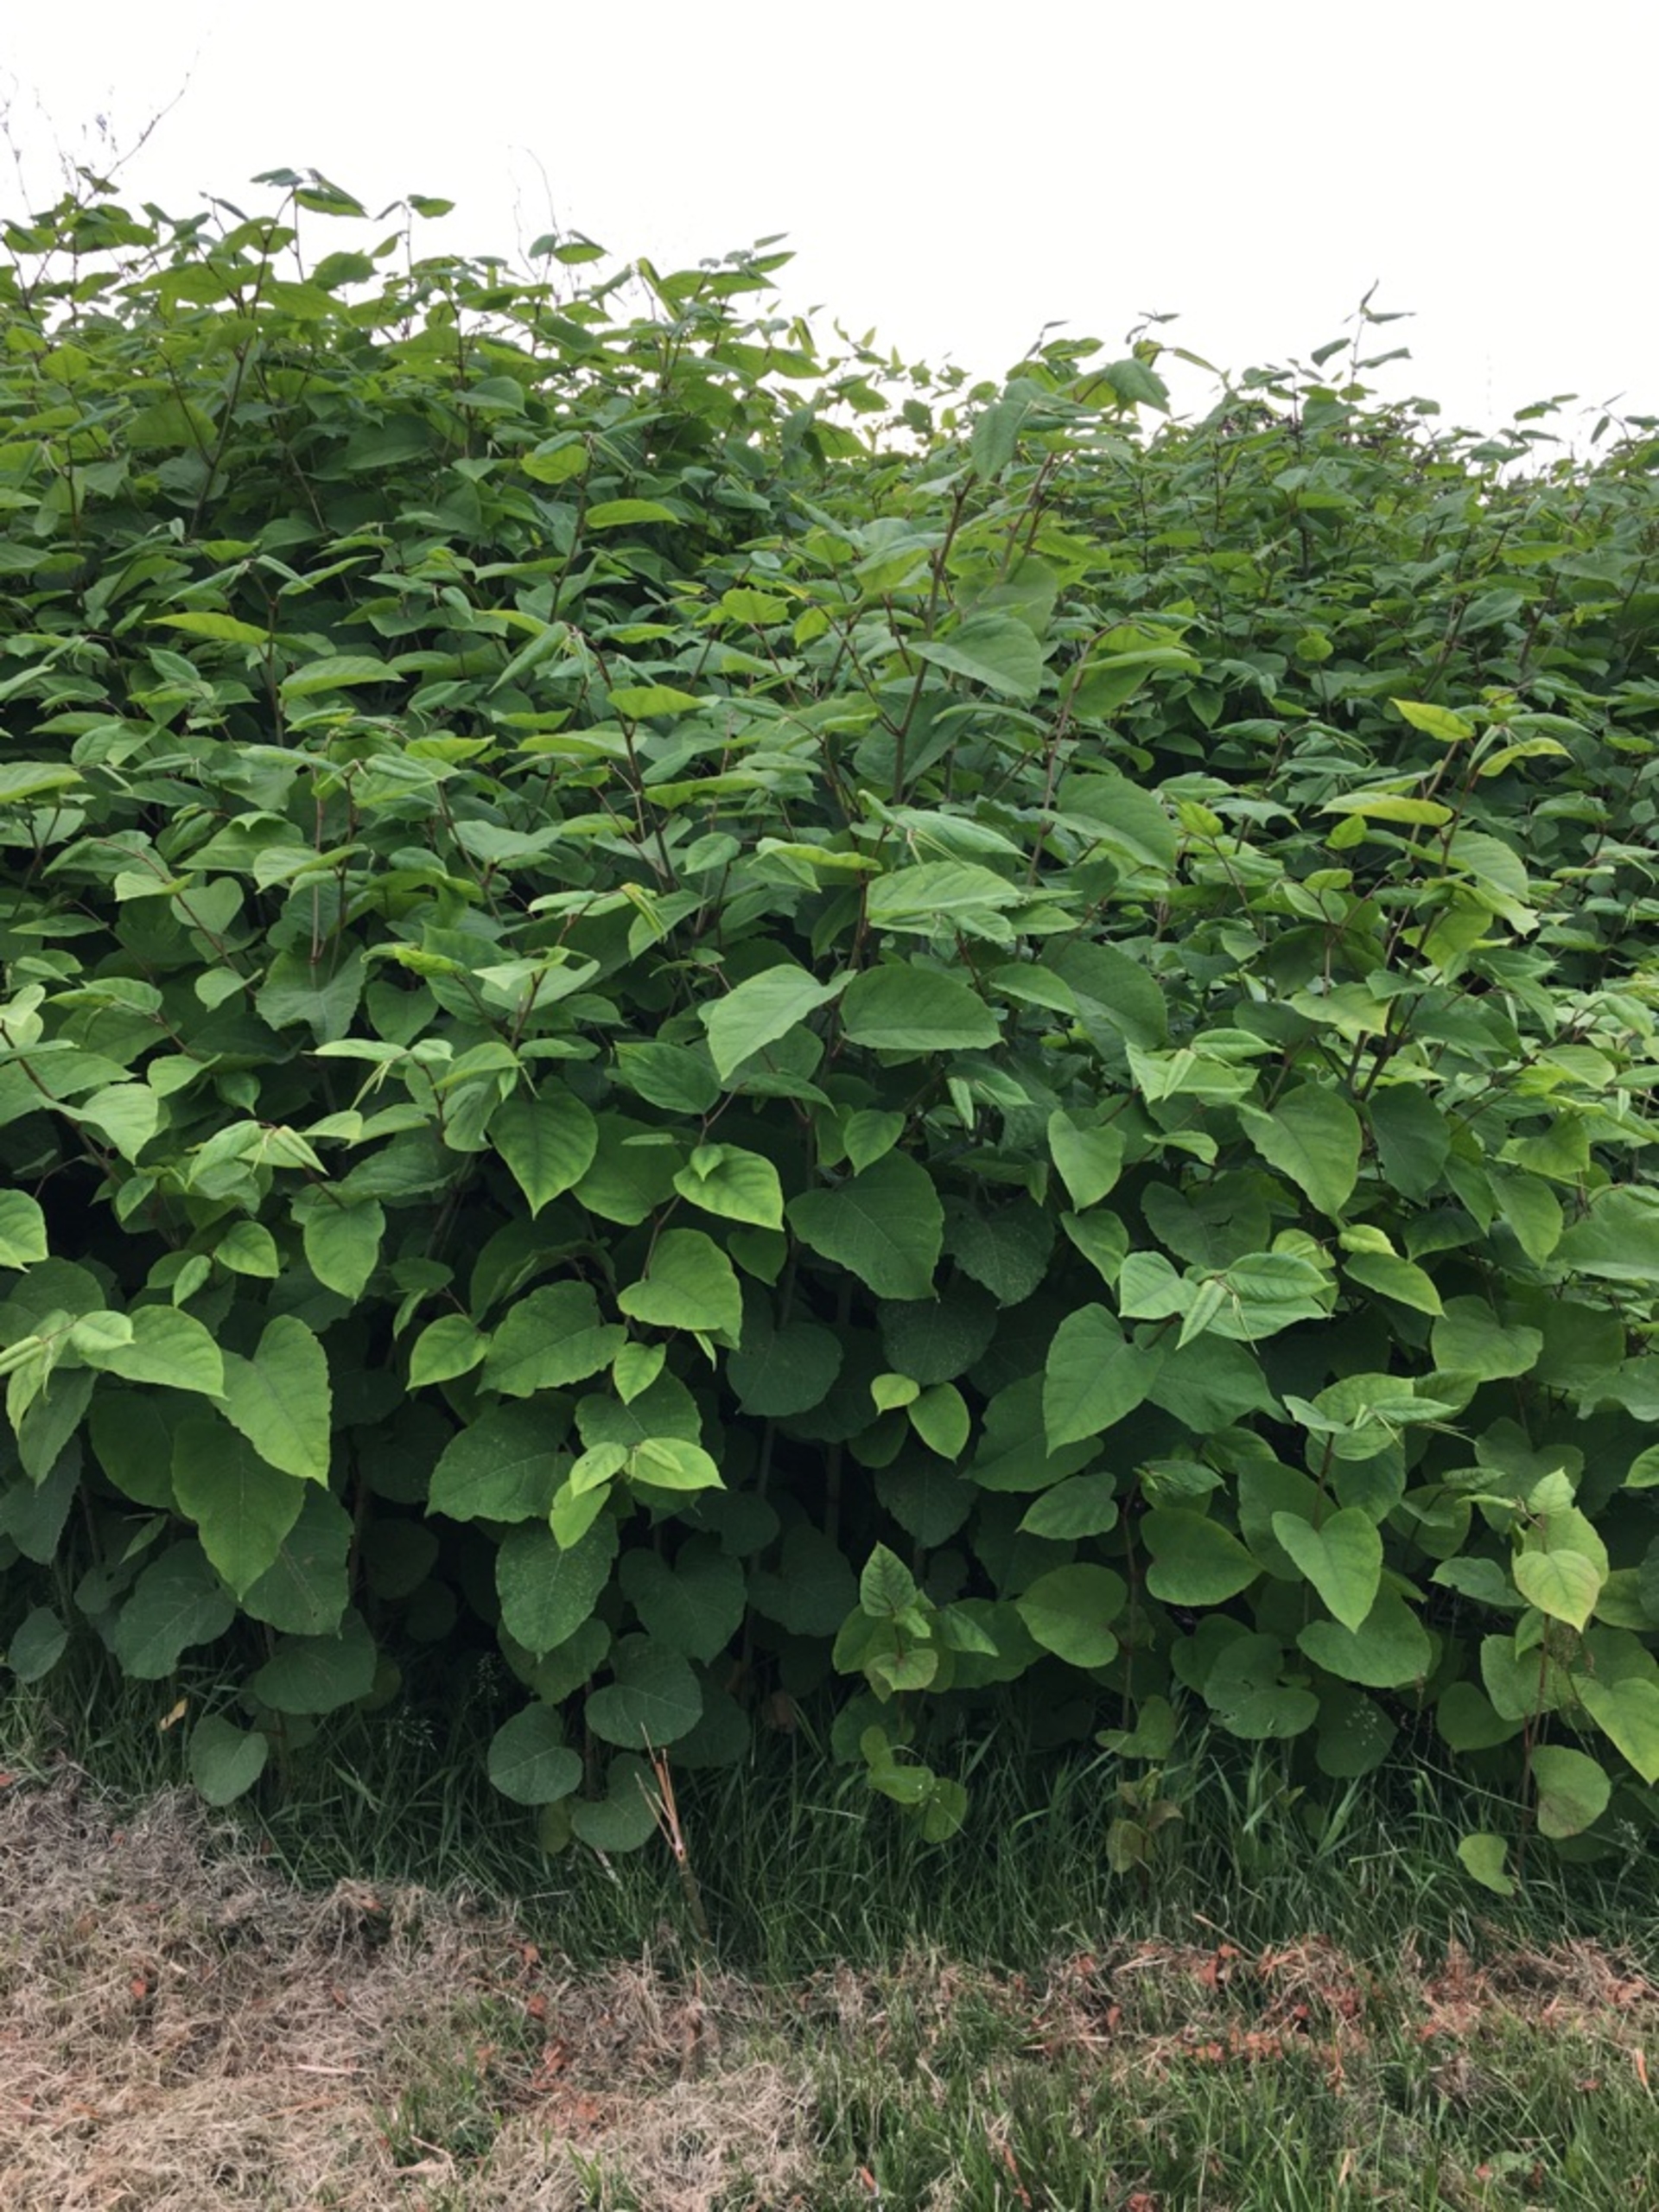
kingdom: Plantae
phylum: Tracheophyta
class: Magnoliopsida
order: Caryophyllales
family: Polygonaceae
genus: Reynoutria
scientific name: Reynoutria bohemica
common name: Hybrid-pileurt
